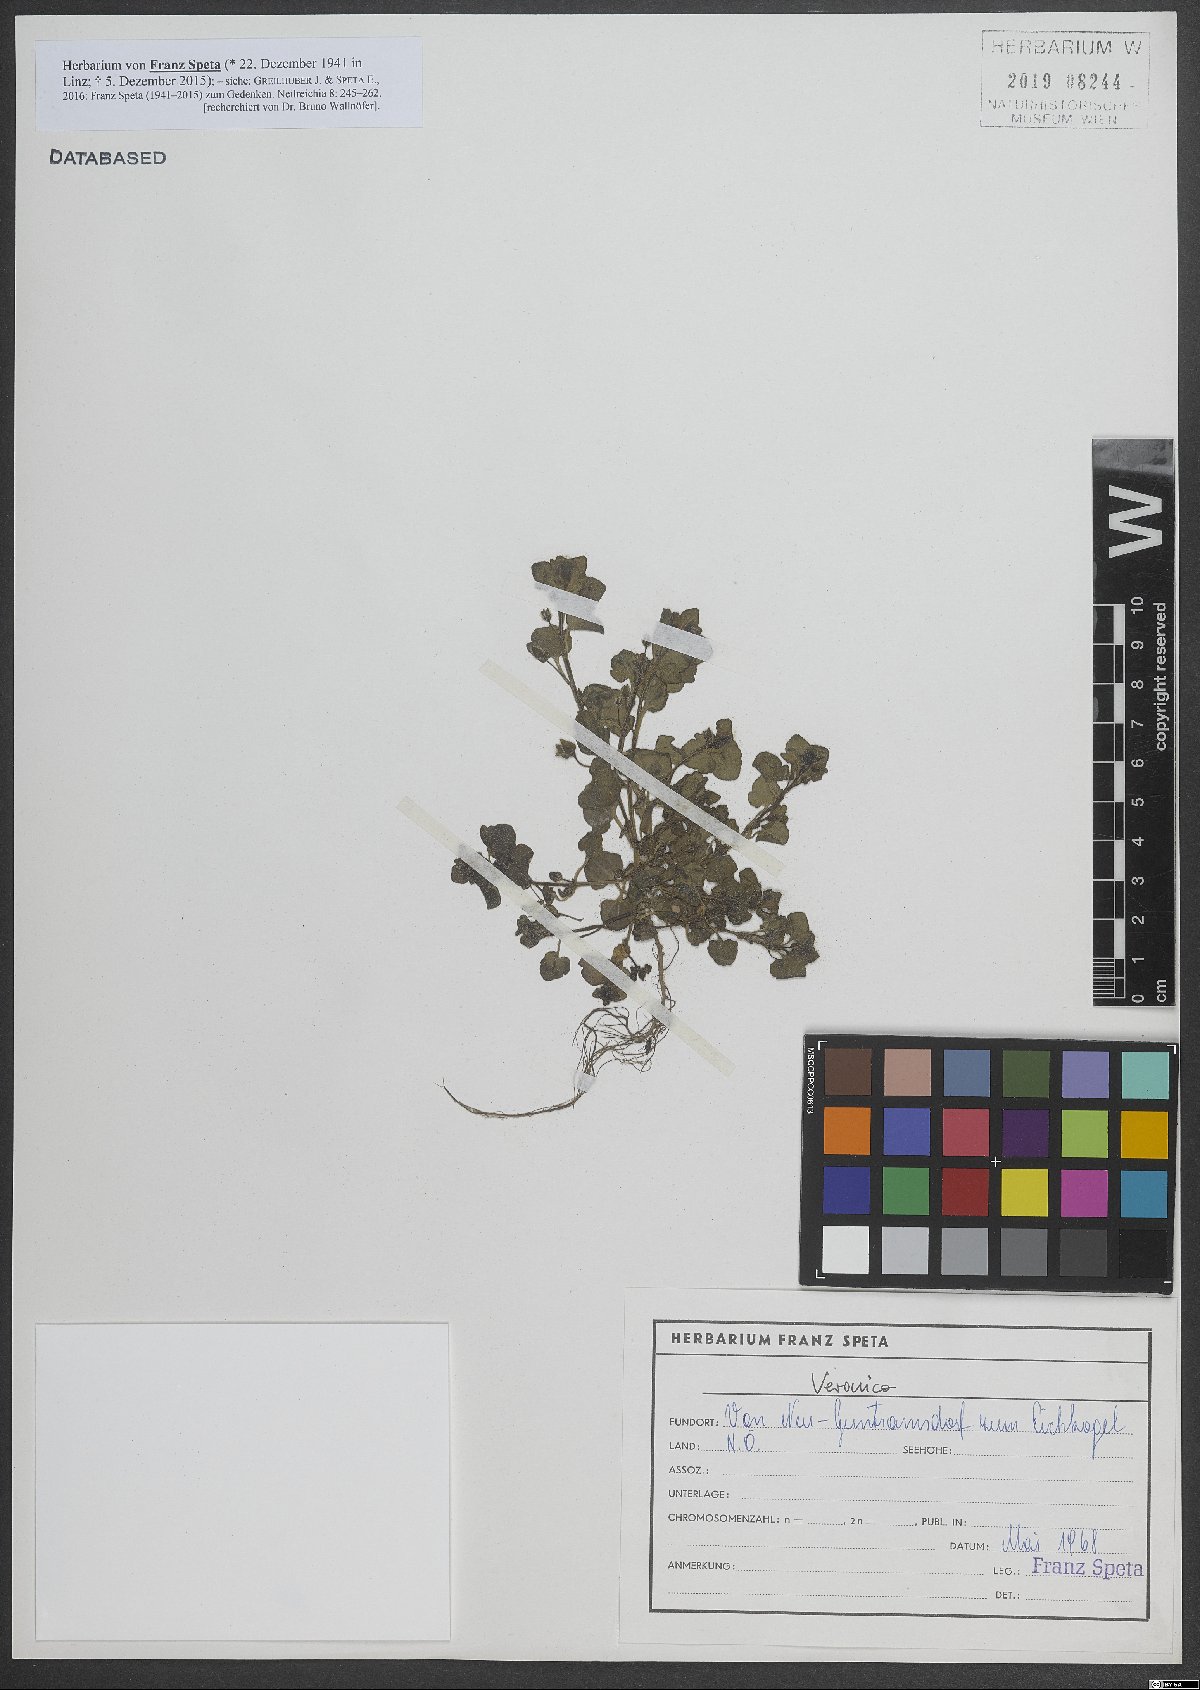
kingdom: Plantae
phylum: Tracheophyta
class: Magnoliopsida
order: Lamiales
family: Plantaginaceae
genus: Veronica
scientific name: Veronica
